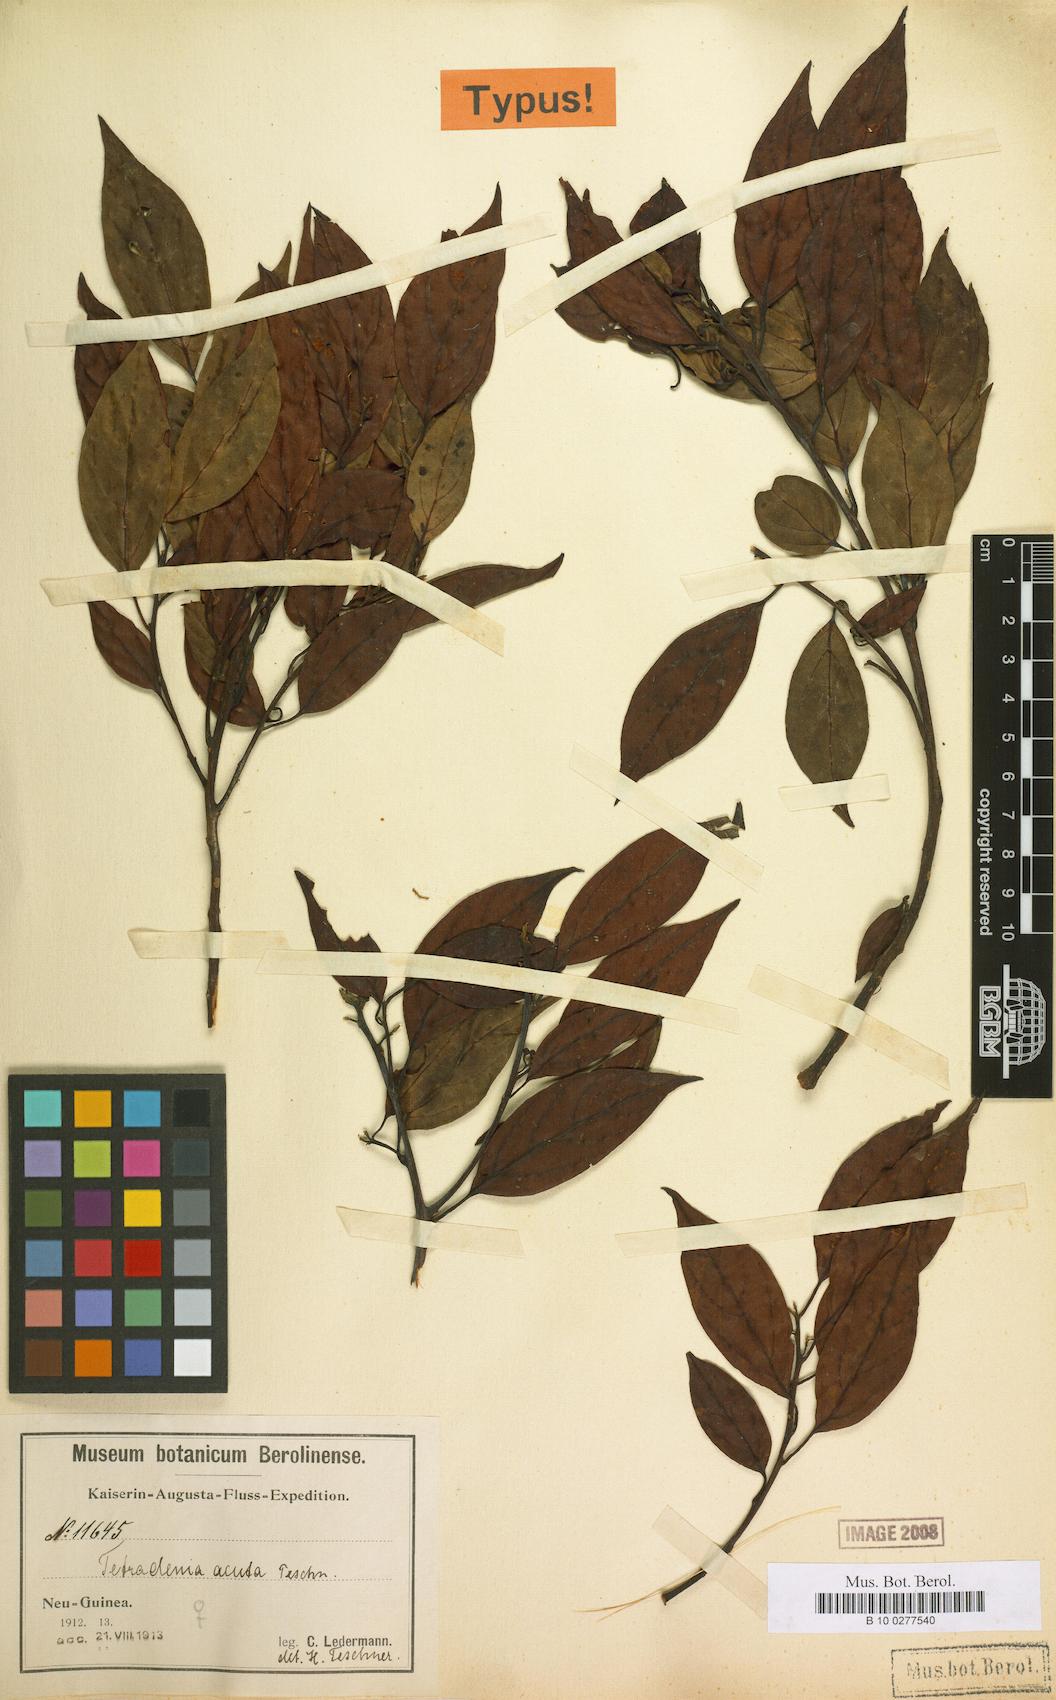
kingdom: Plantae
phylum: Tracheophyta
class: Magnoliopsida
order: Laurales
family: Lauraceae
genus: Neolitsea
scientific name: Neolitsea acuta
